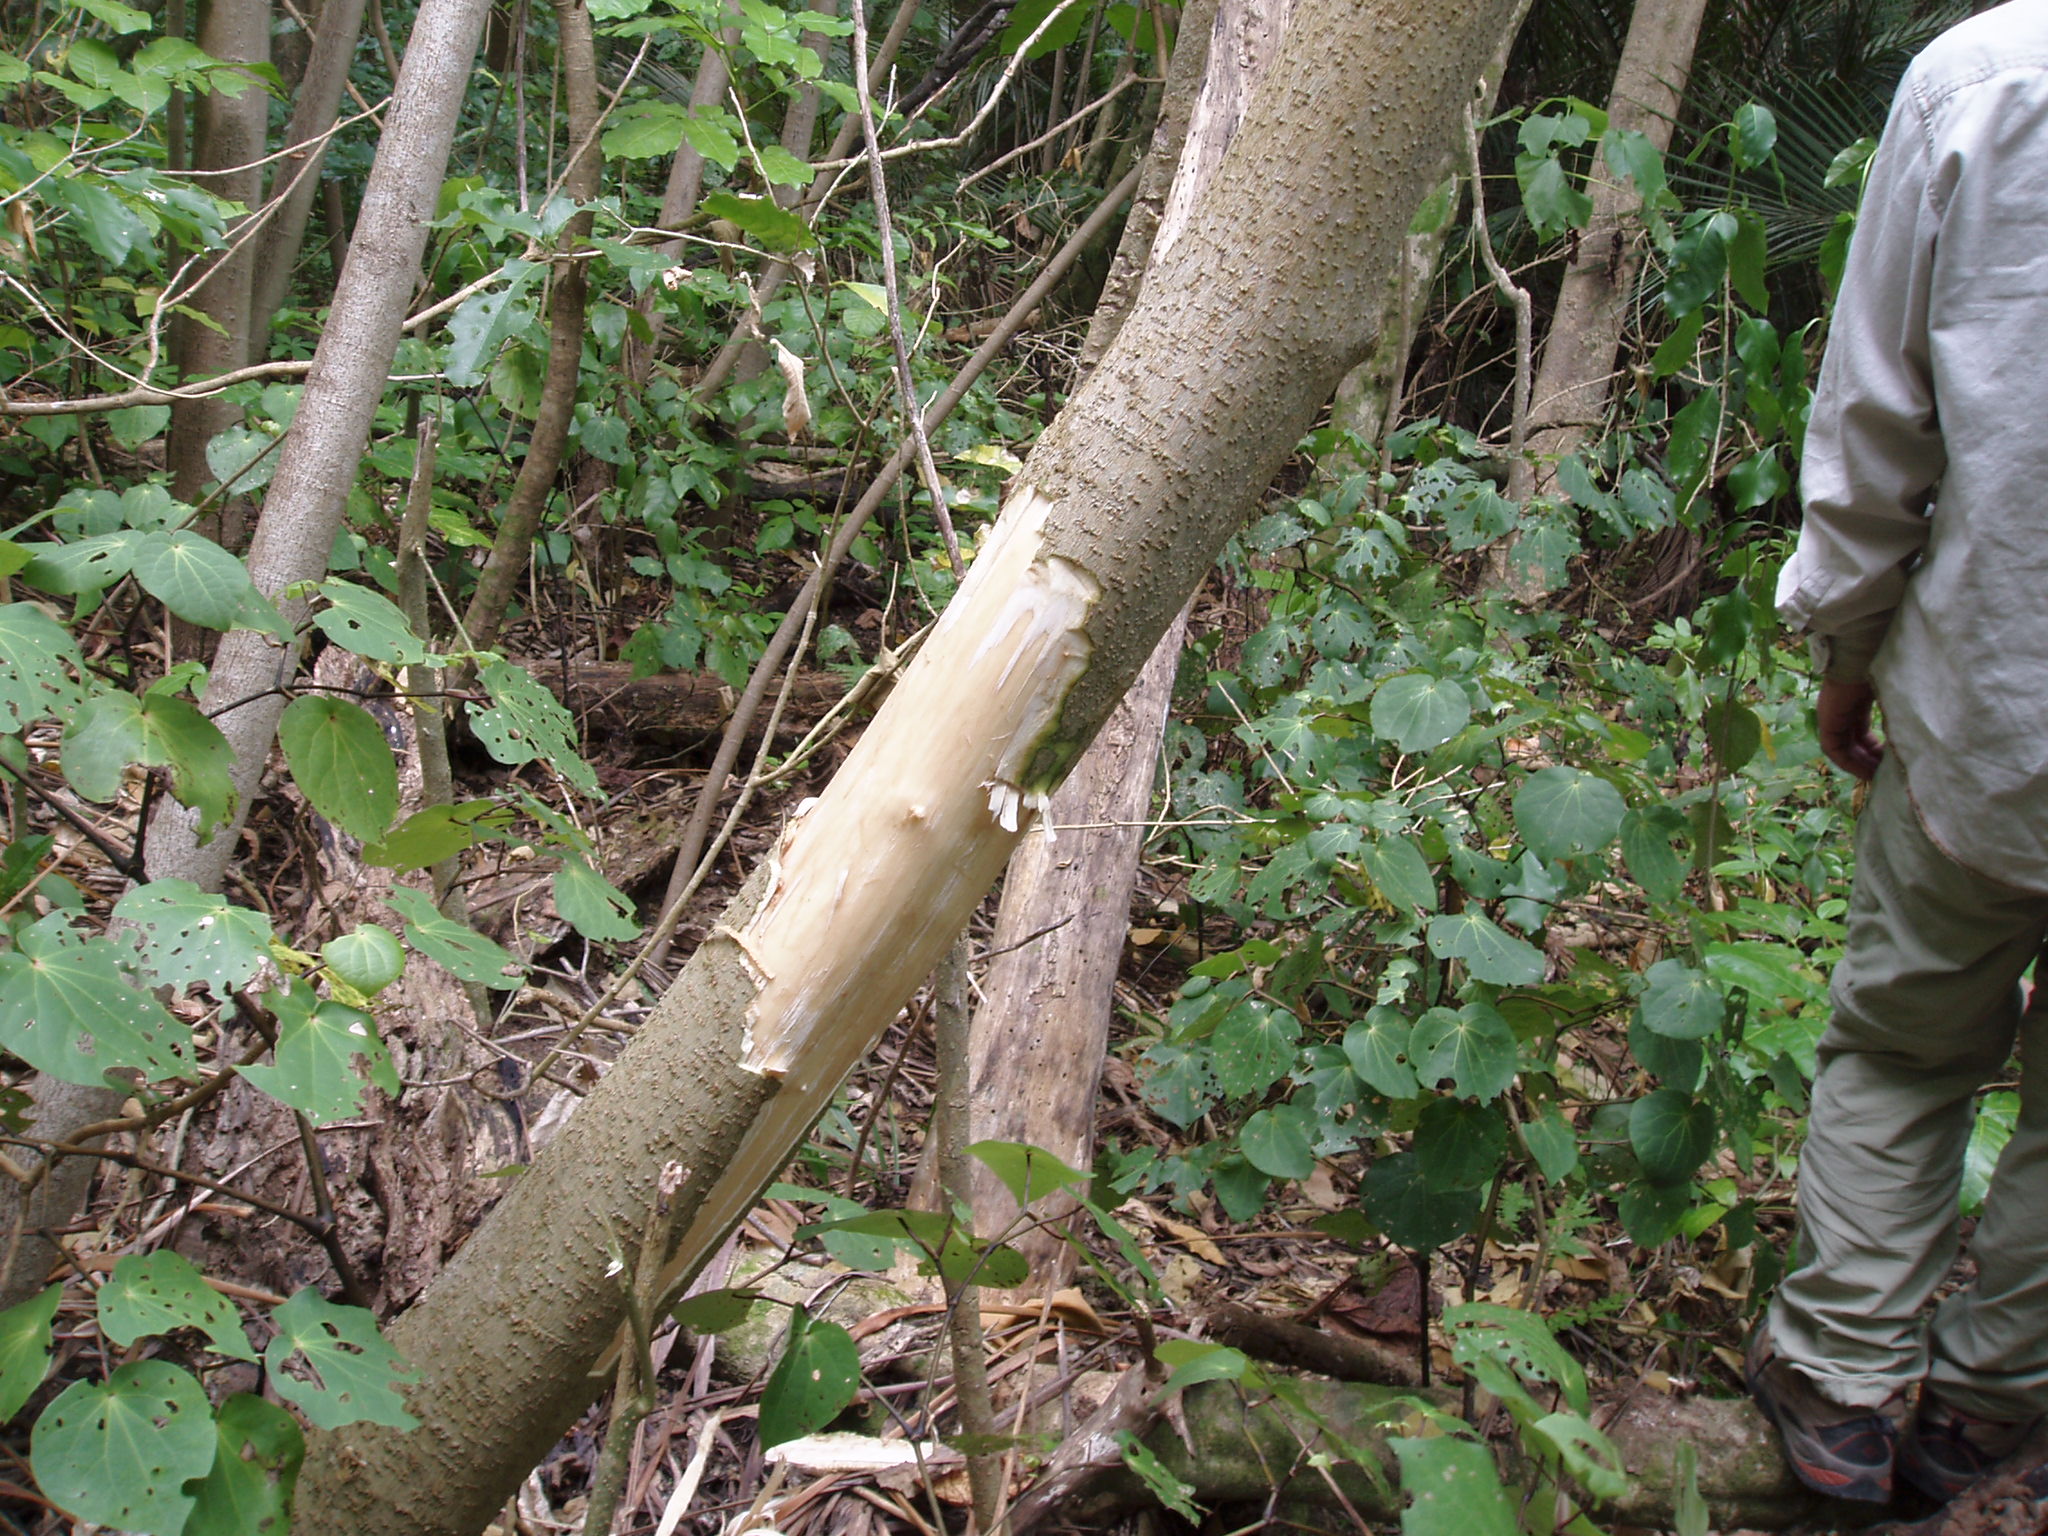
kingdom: Plantae
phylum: Tracheophyta
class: Magnoliopsida
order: Solanales
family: Solanaceae
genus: Solanum
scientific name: Solanum mauritianum
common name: Earleaf nightshade
